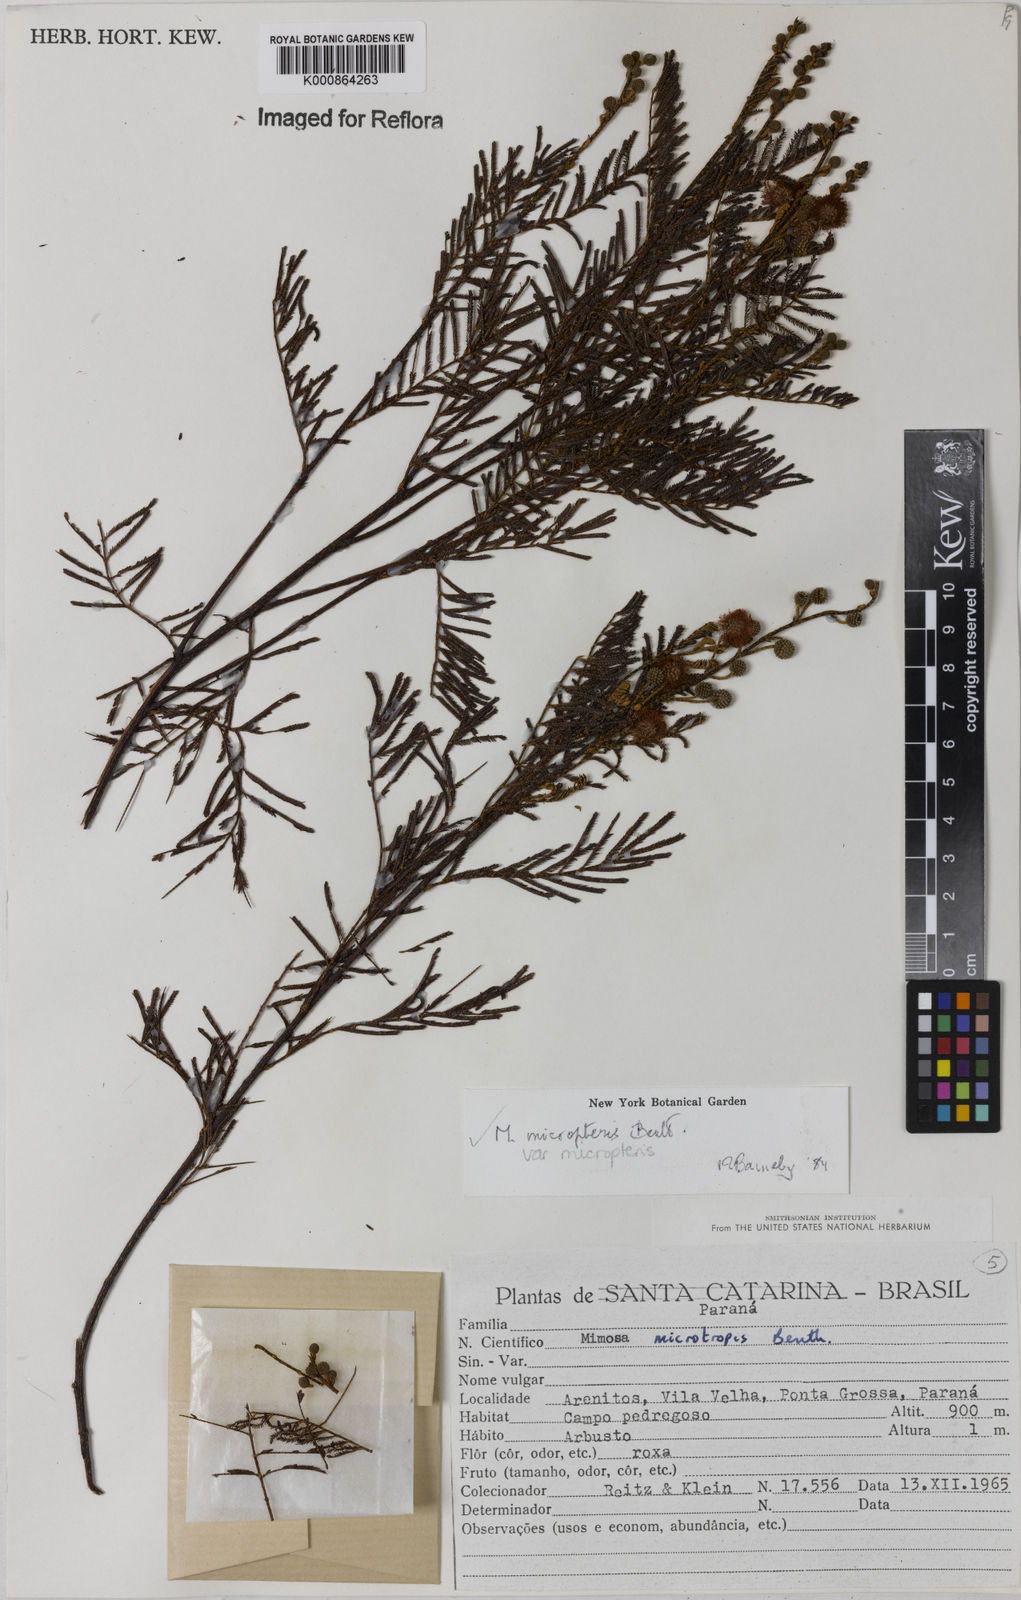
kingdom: Plantae
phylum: Tracheophyta
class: Magnoliopsida
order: Fabales
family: Fabaceae
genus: Mimosa
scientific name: Mimosa micropteris
